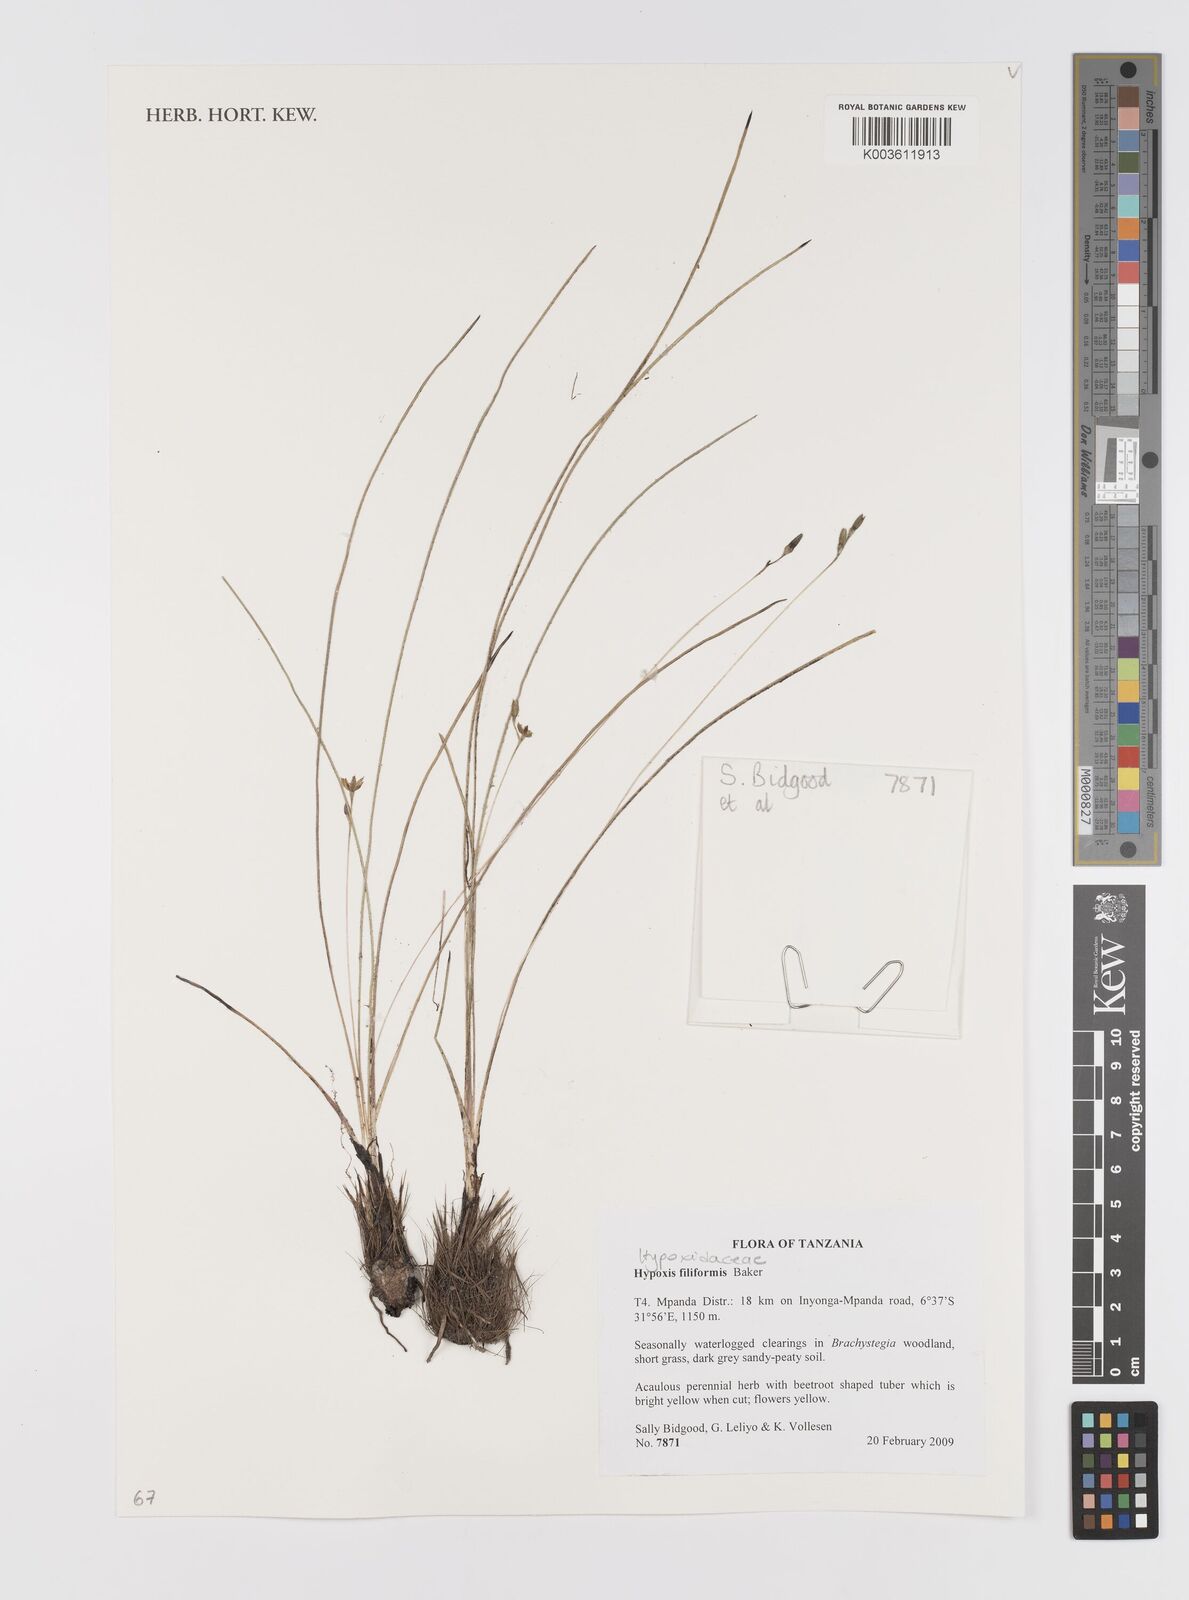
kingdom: Plantae
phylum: Tracheophyta
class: Liliopsida
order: Asparagales
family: Hypoxidaceae
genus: Hypoxis
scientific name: Hypoxis filiformis
